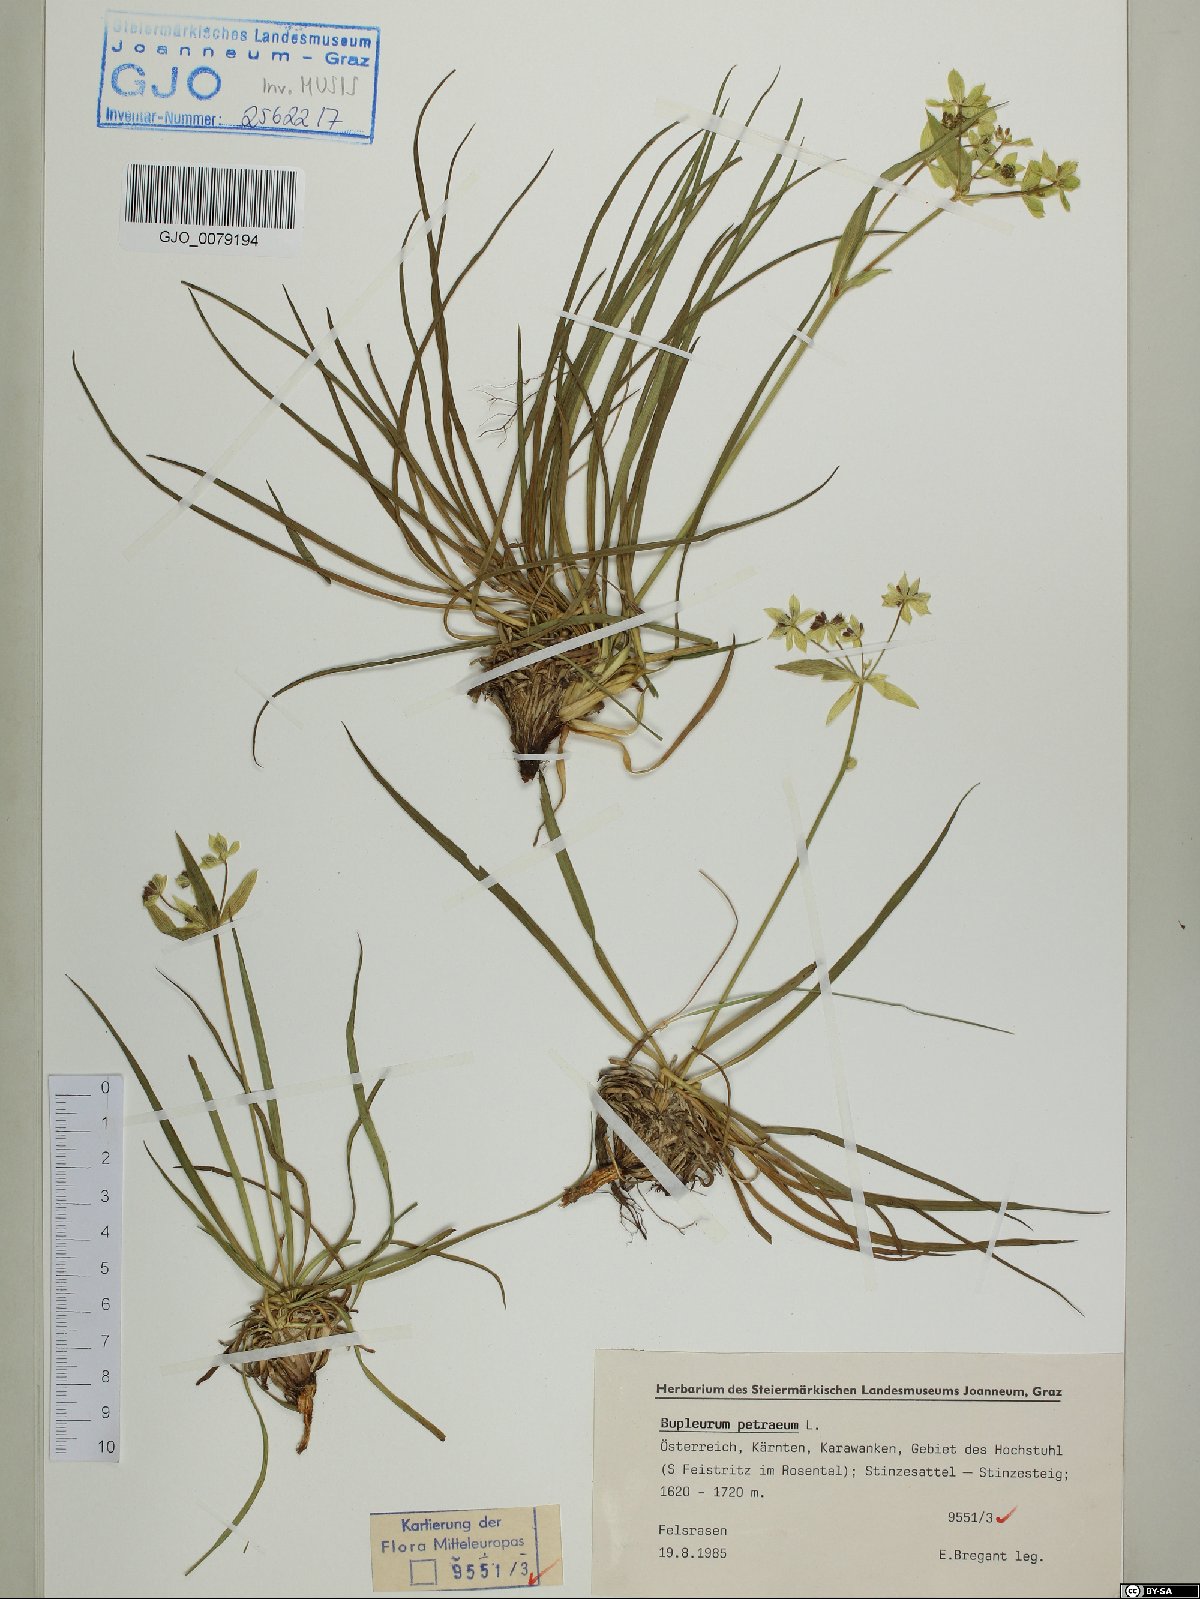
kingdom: Plantae
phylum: Tracheophyta
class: Magnoliopsida
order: Apiales
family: Apiaceae
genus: Bupleurum
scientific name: Bupleurum petraeum
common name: Rock hare's-ear
